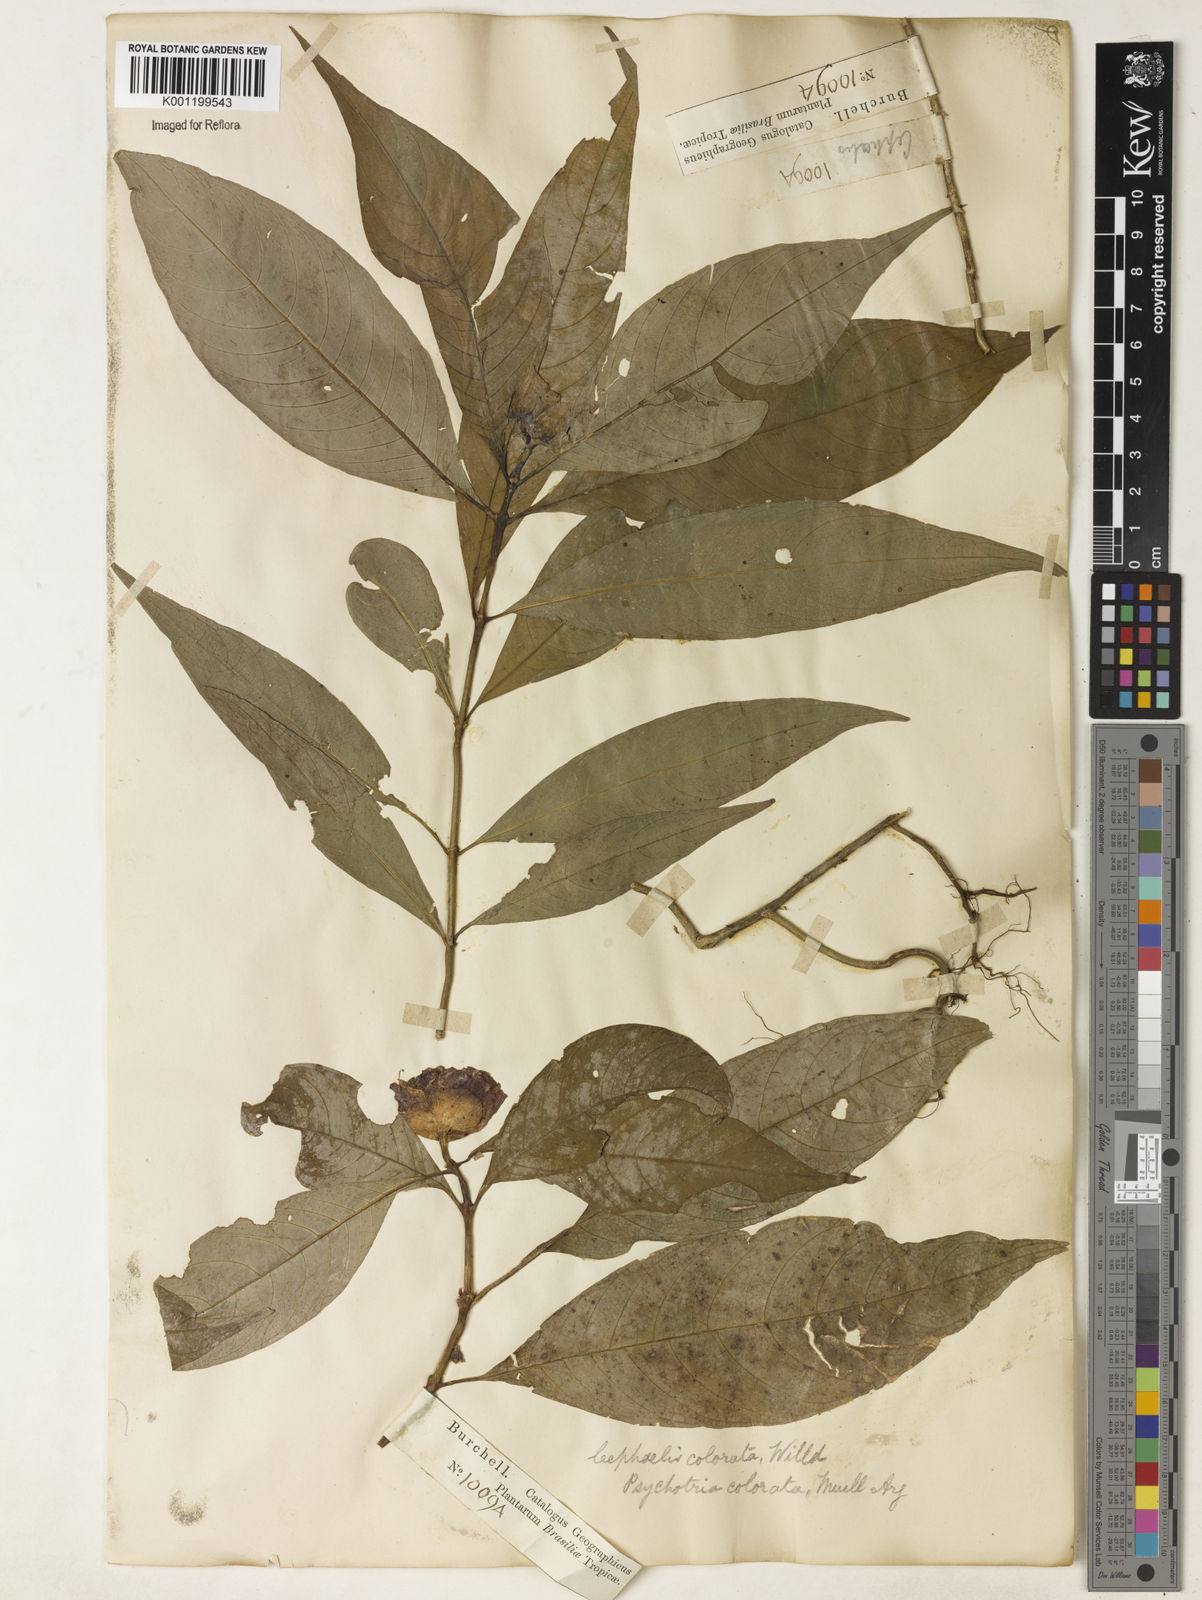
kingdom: Plantae
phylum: Tracheophyta
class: Magnoliopsida
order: Gentianales
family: Rubiaceae
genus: Psychotria
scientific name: Psychotria
